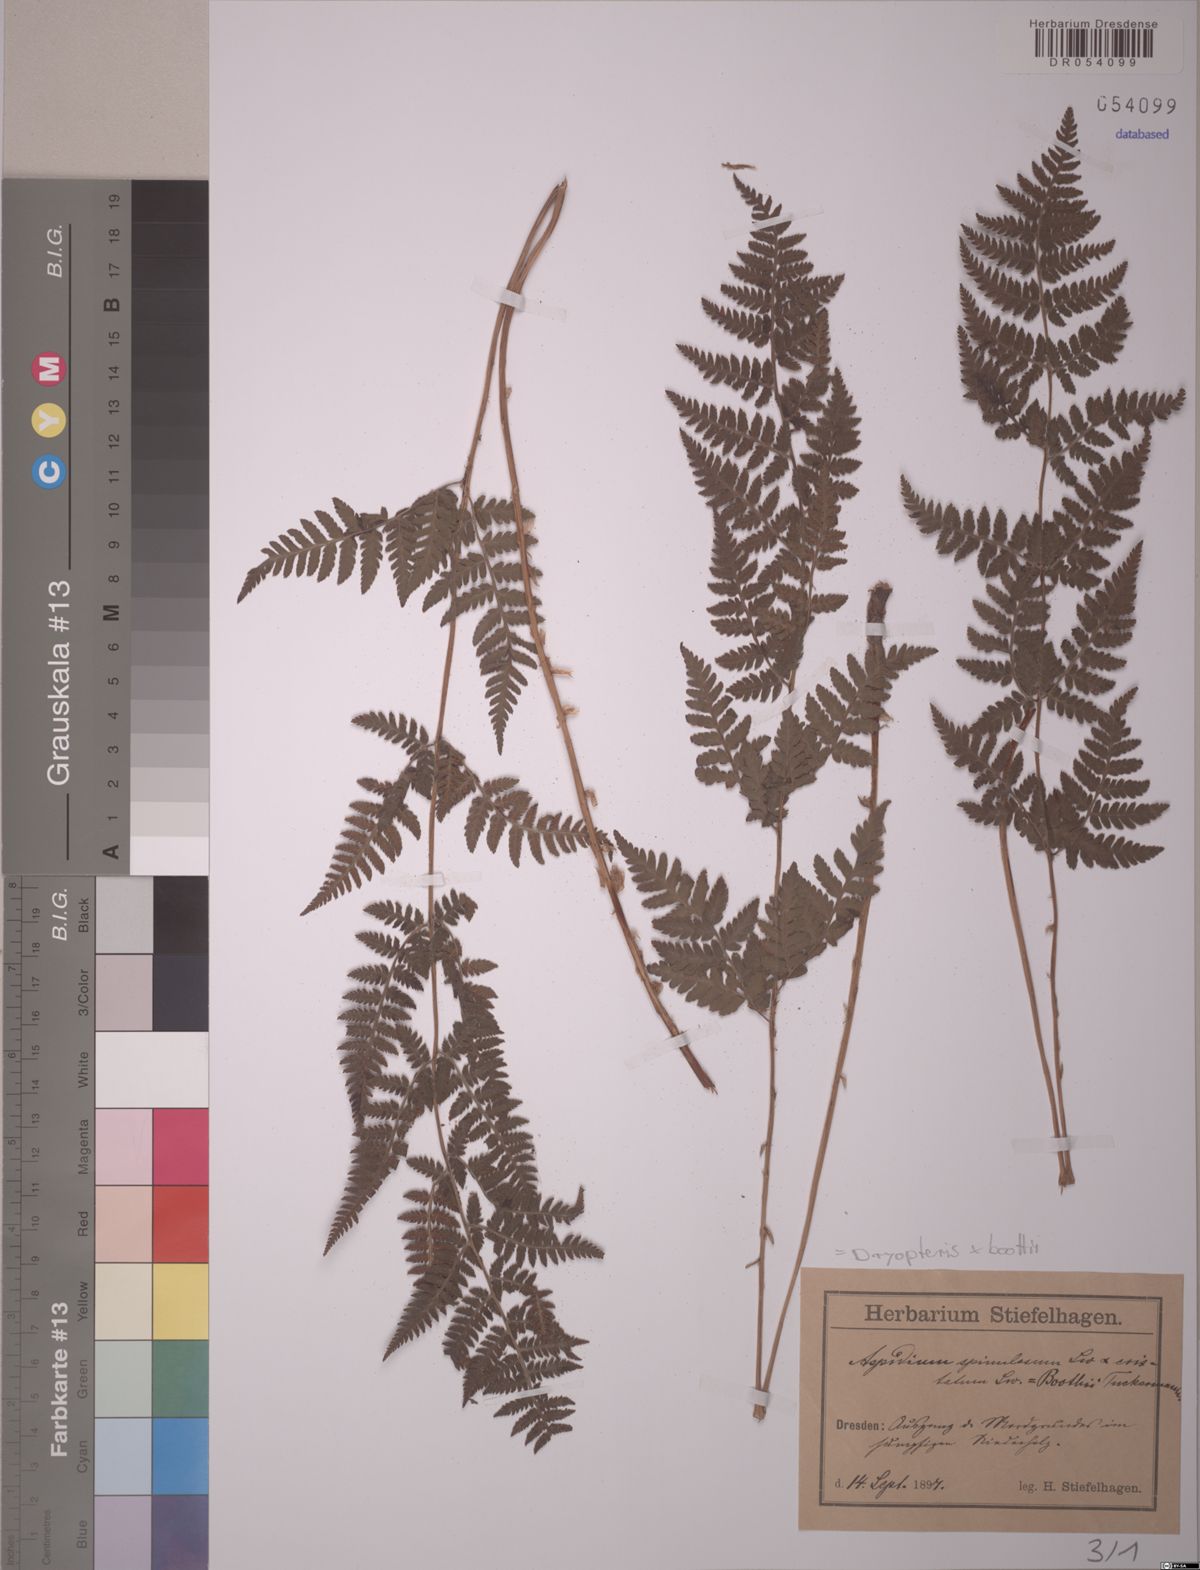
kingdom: Plantae
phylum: Tracheophyta
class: Polypodiopsida
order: Polypodiales
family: Dryopteridaceae
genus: Dryopteris
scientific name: Dryopteris boottii
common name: Boott's fern
